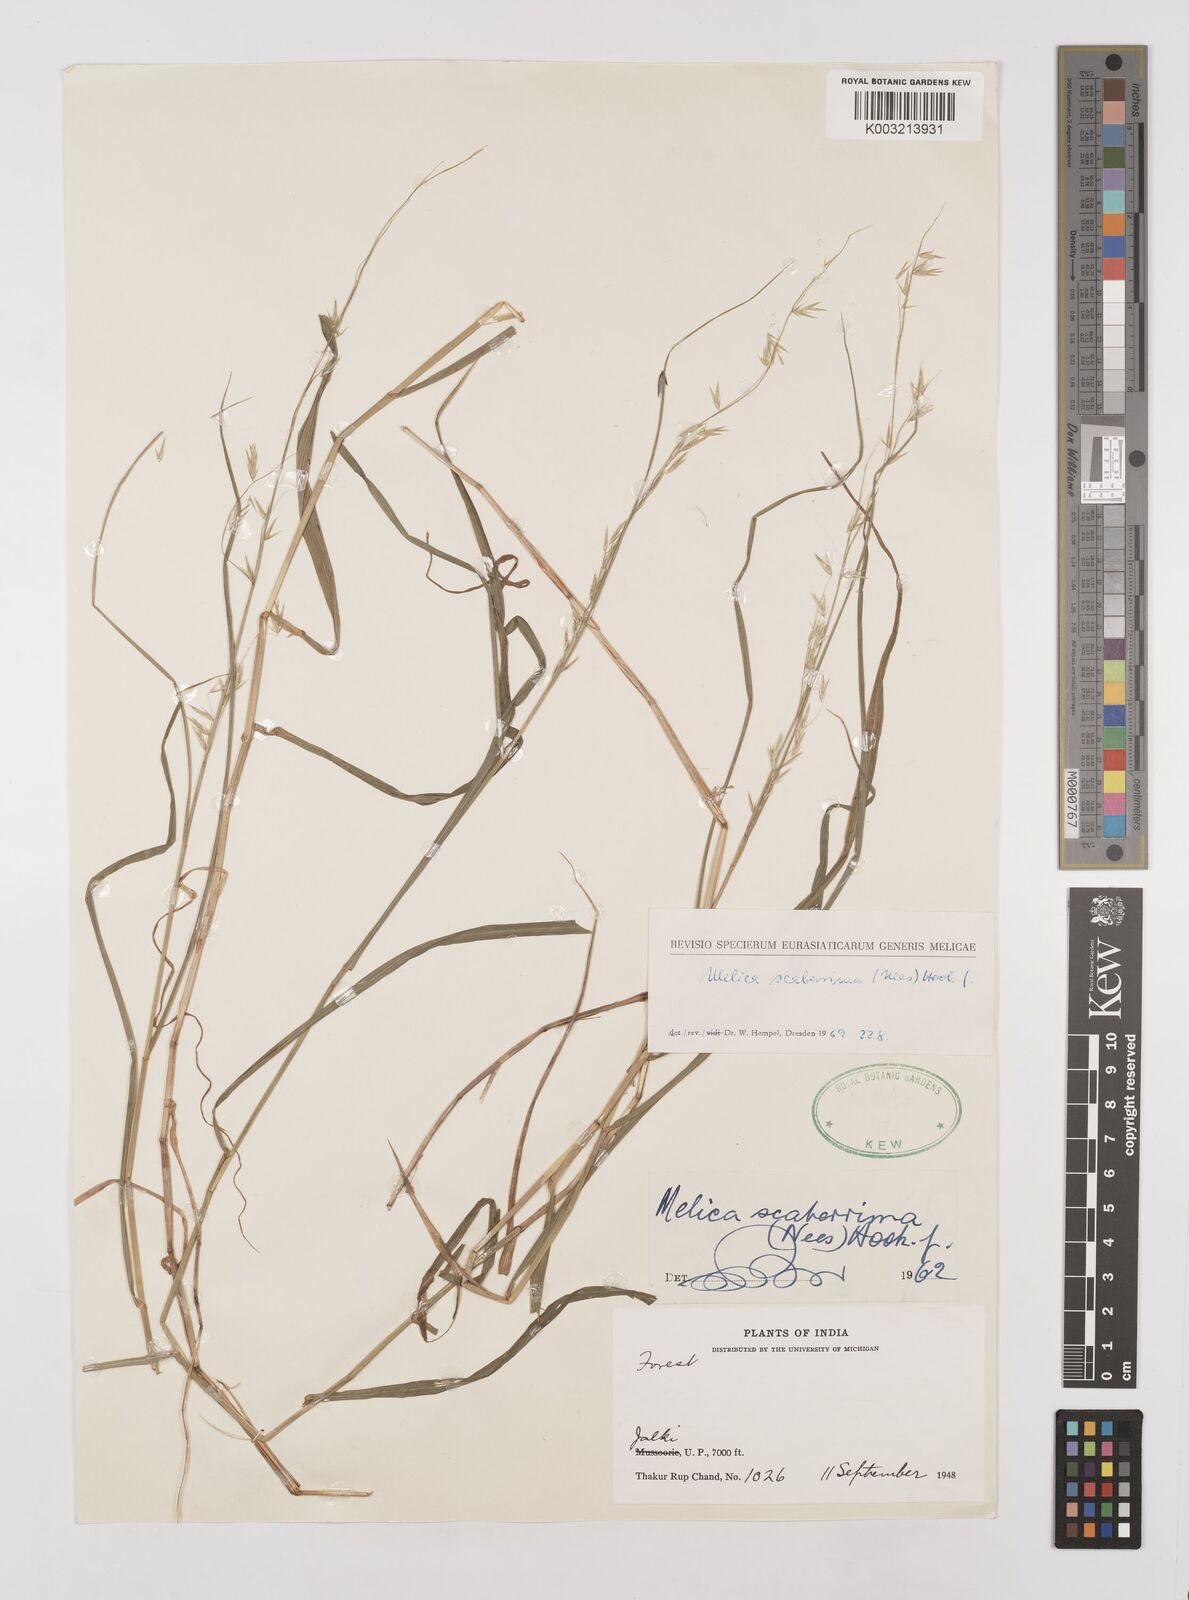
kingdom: Plantae
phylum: Tracheophyta
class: Liliopsida
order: Poales
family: Poaceae
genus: Melica
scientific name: Melica scaberrima
